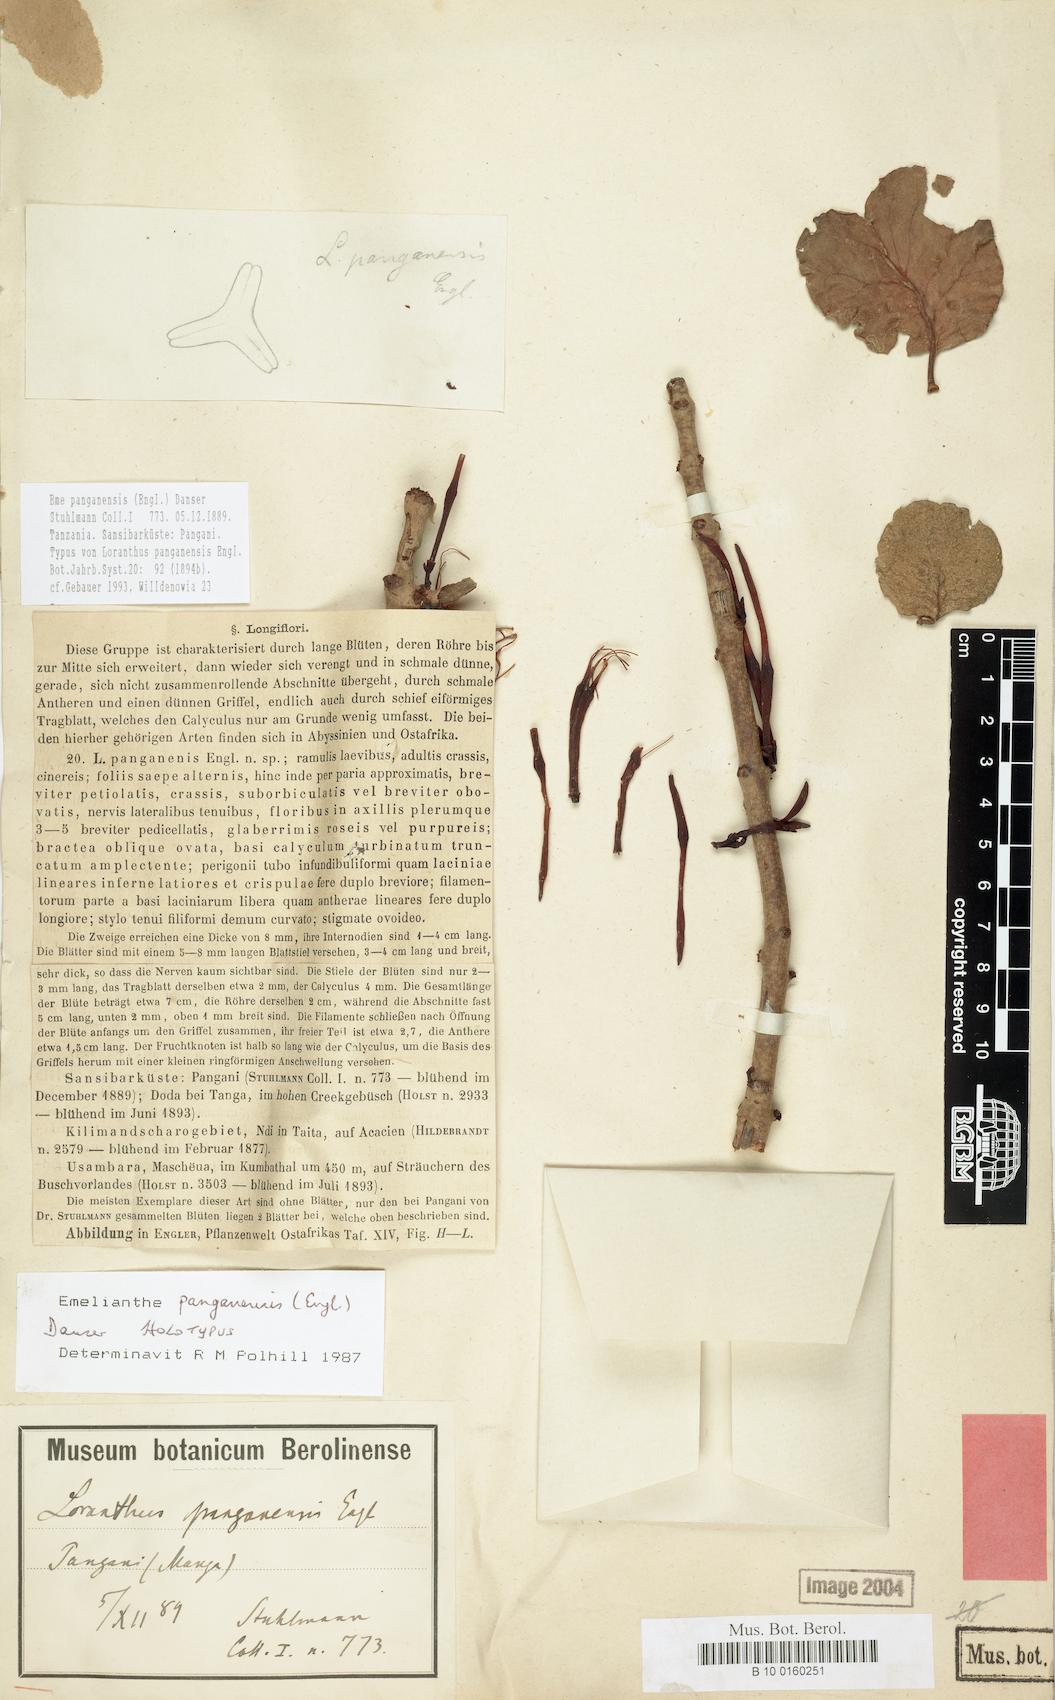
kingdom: Plantae
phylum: Tracheophyta
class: Magnoliopsida
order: Santalales
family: Loranthaceae
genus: Emelianthe
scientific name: Emelianthe panganensis
